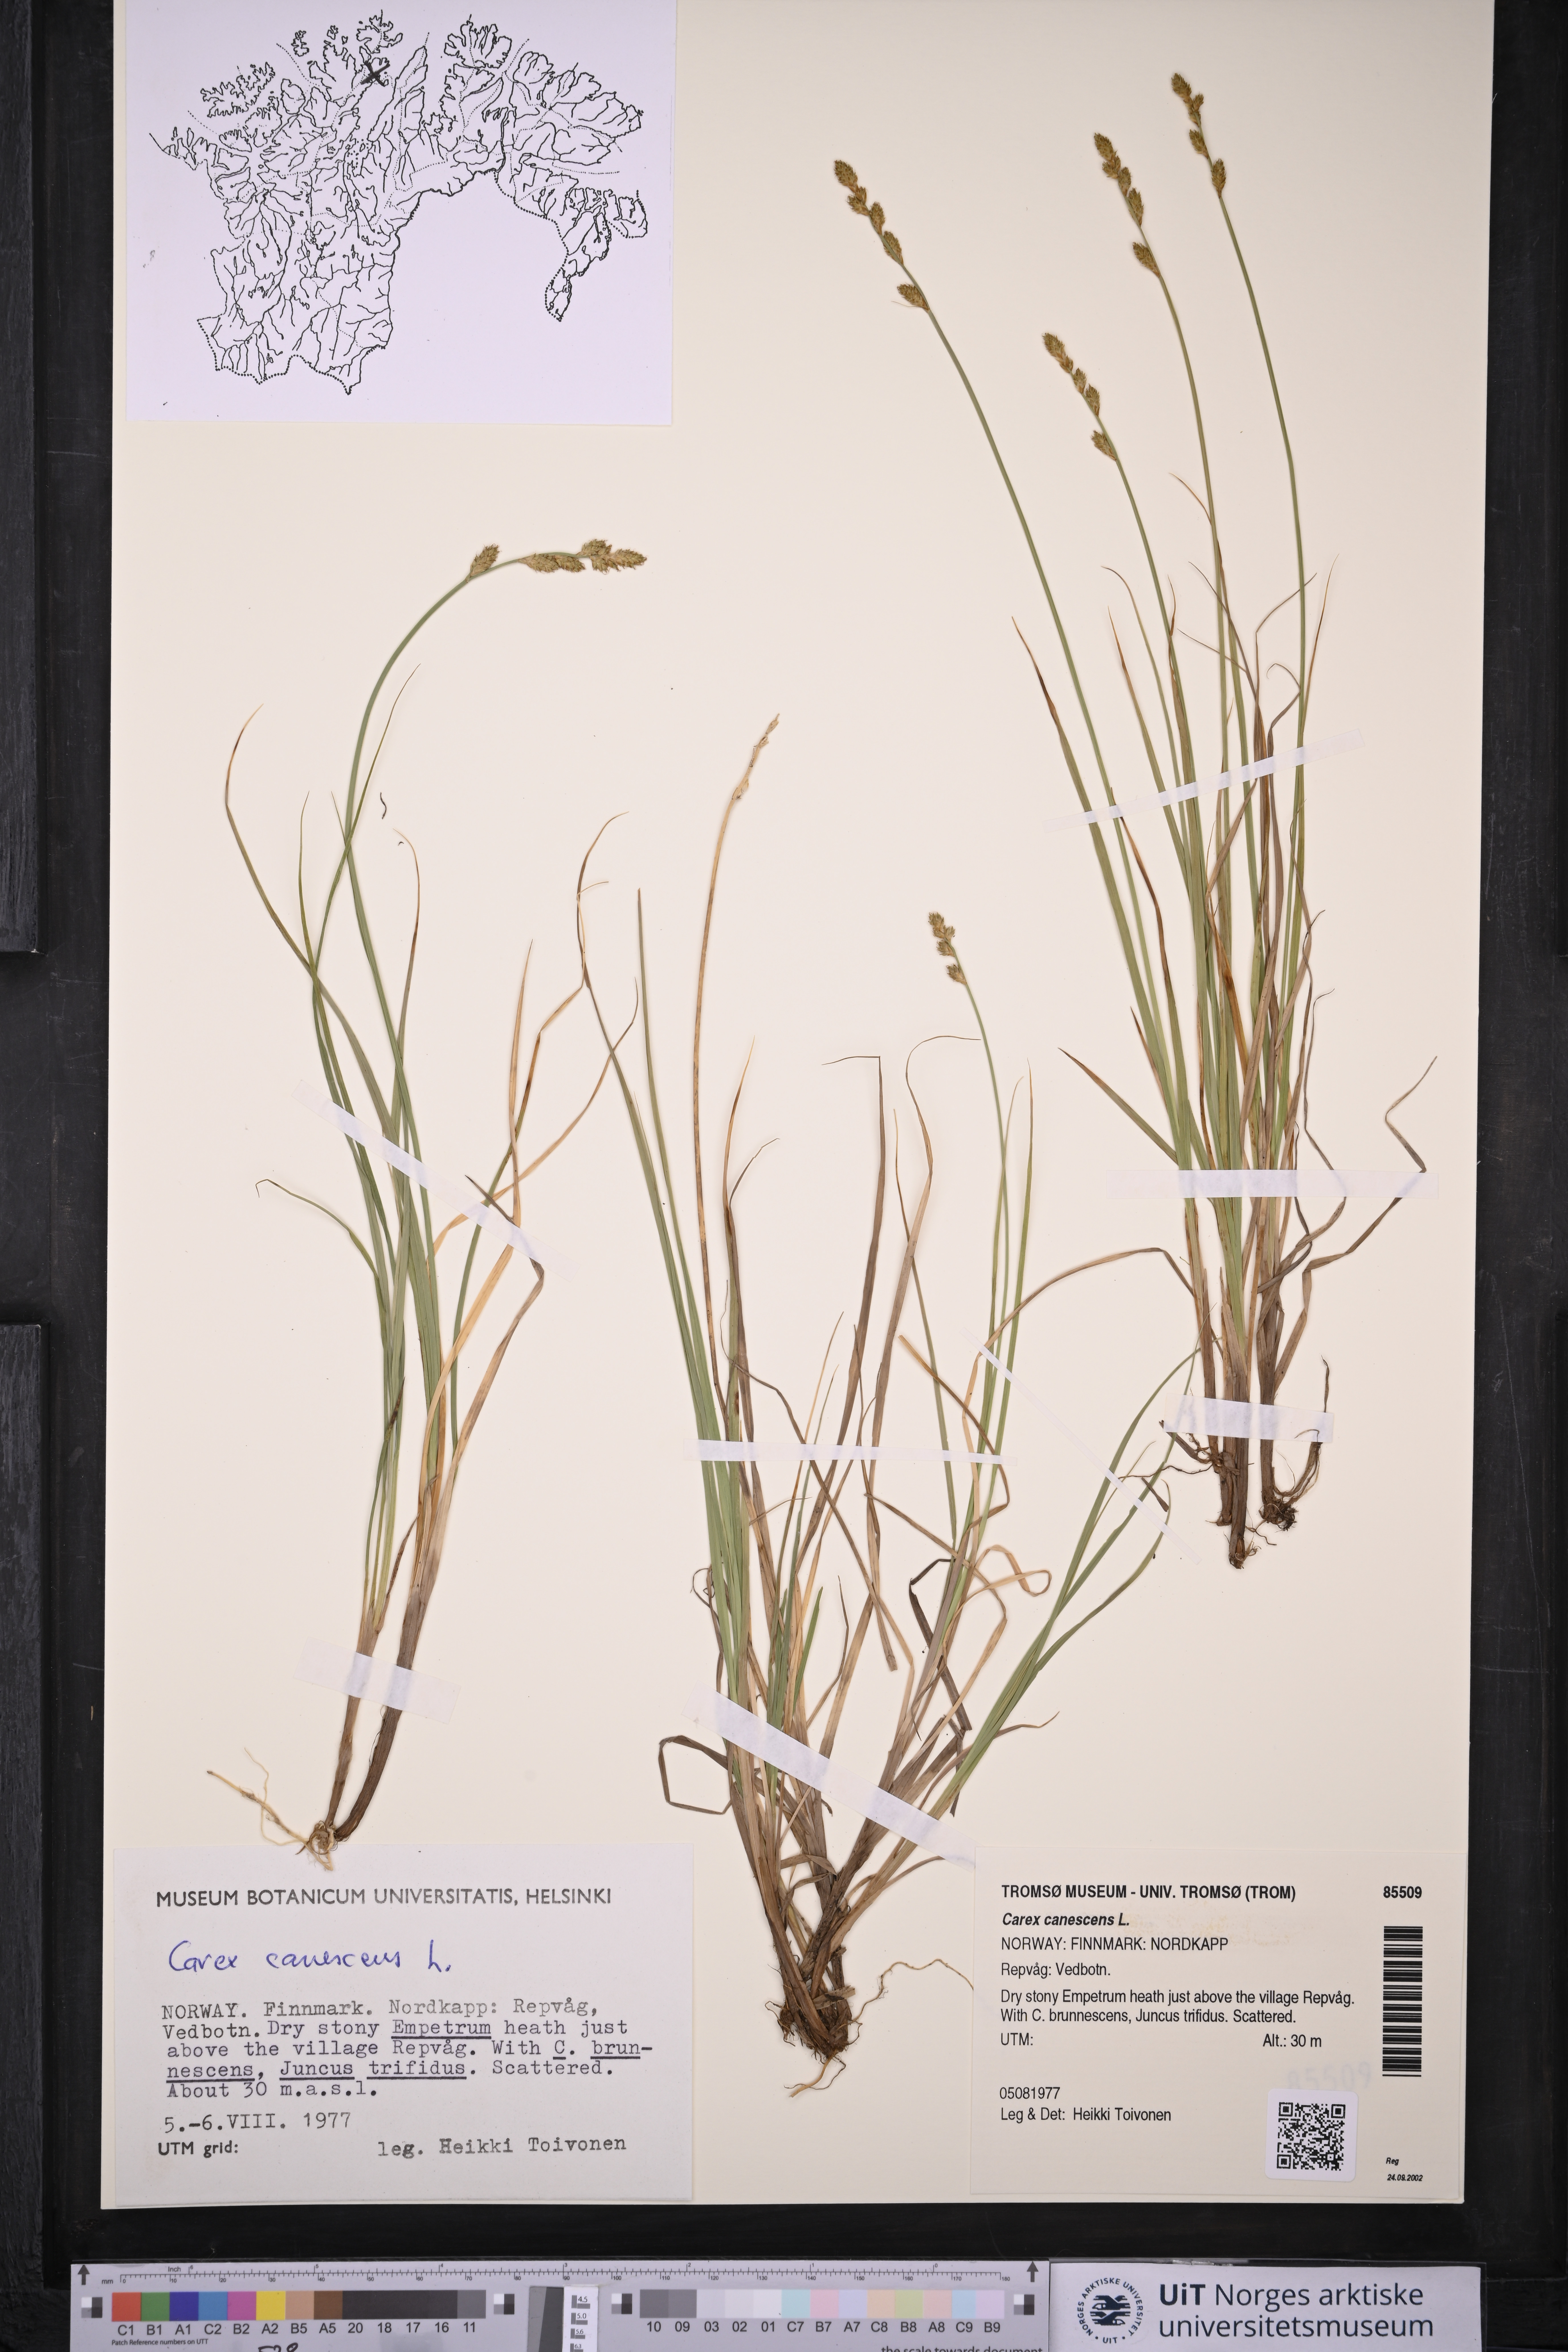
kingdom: Plantae
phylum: Tracheophyta
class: Liliopsida
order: Poales
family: Cyperaceae
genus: Carex
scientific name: Carex canescens
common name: White sedge
